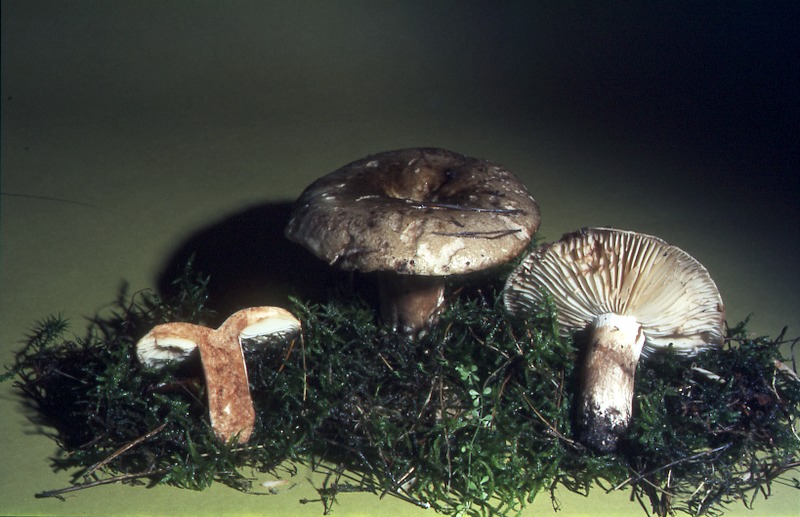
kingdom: Fungi
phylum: Basidiomycota
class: Agaricomycetes
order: Russulales
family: Russulaceae
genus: Russula
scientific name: Russula adusta
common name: Winecork brittlegill
